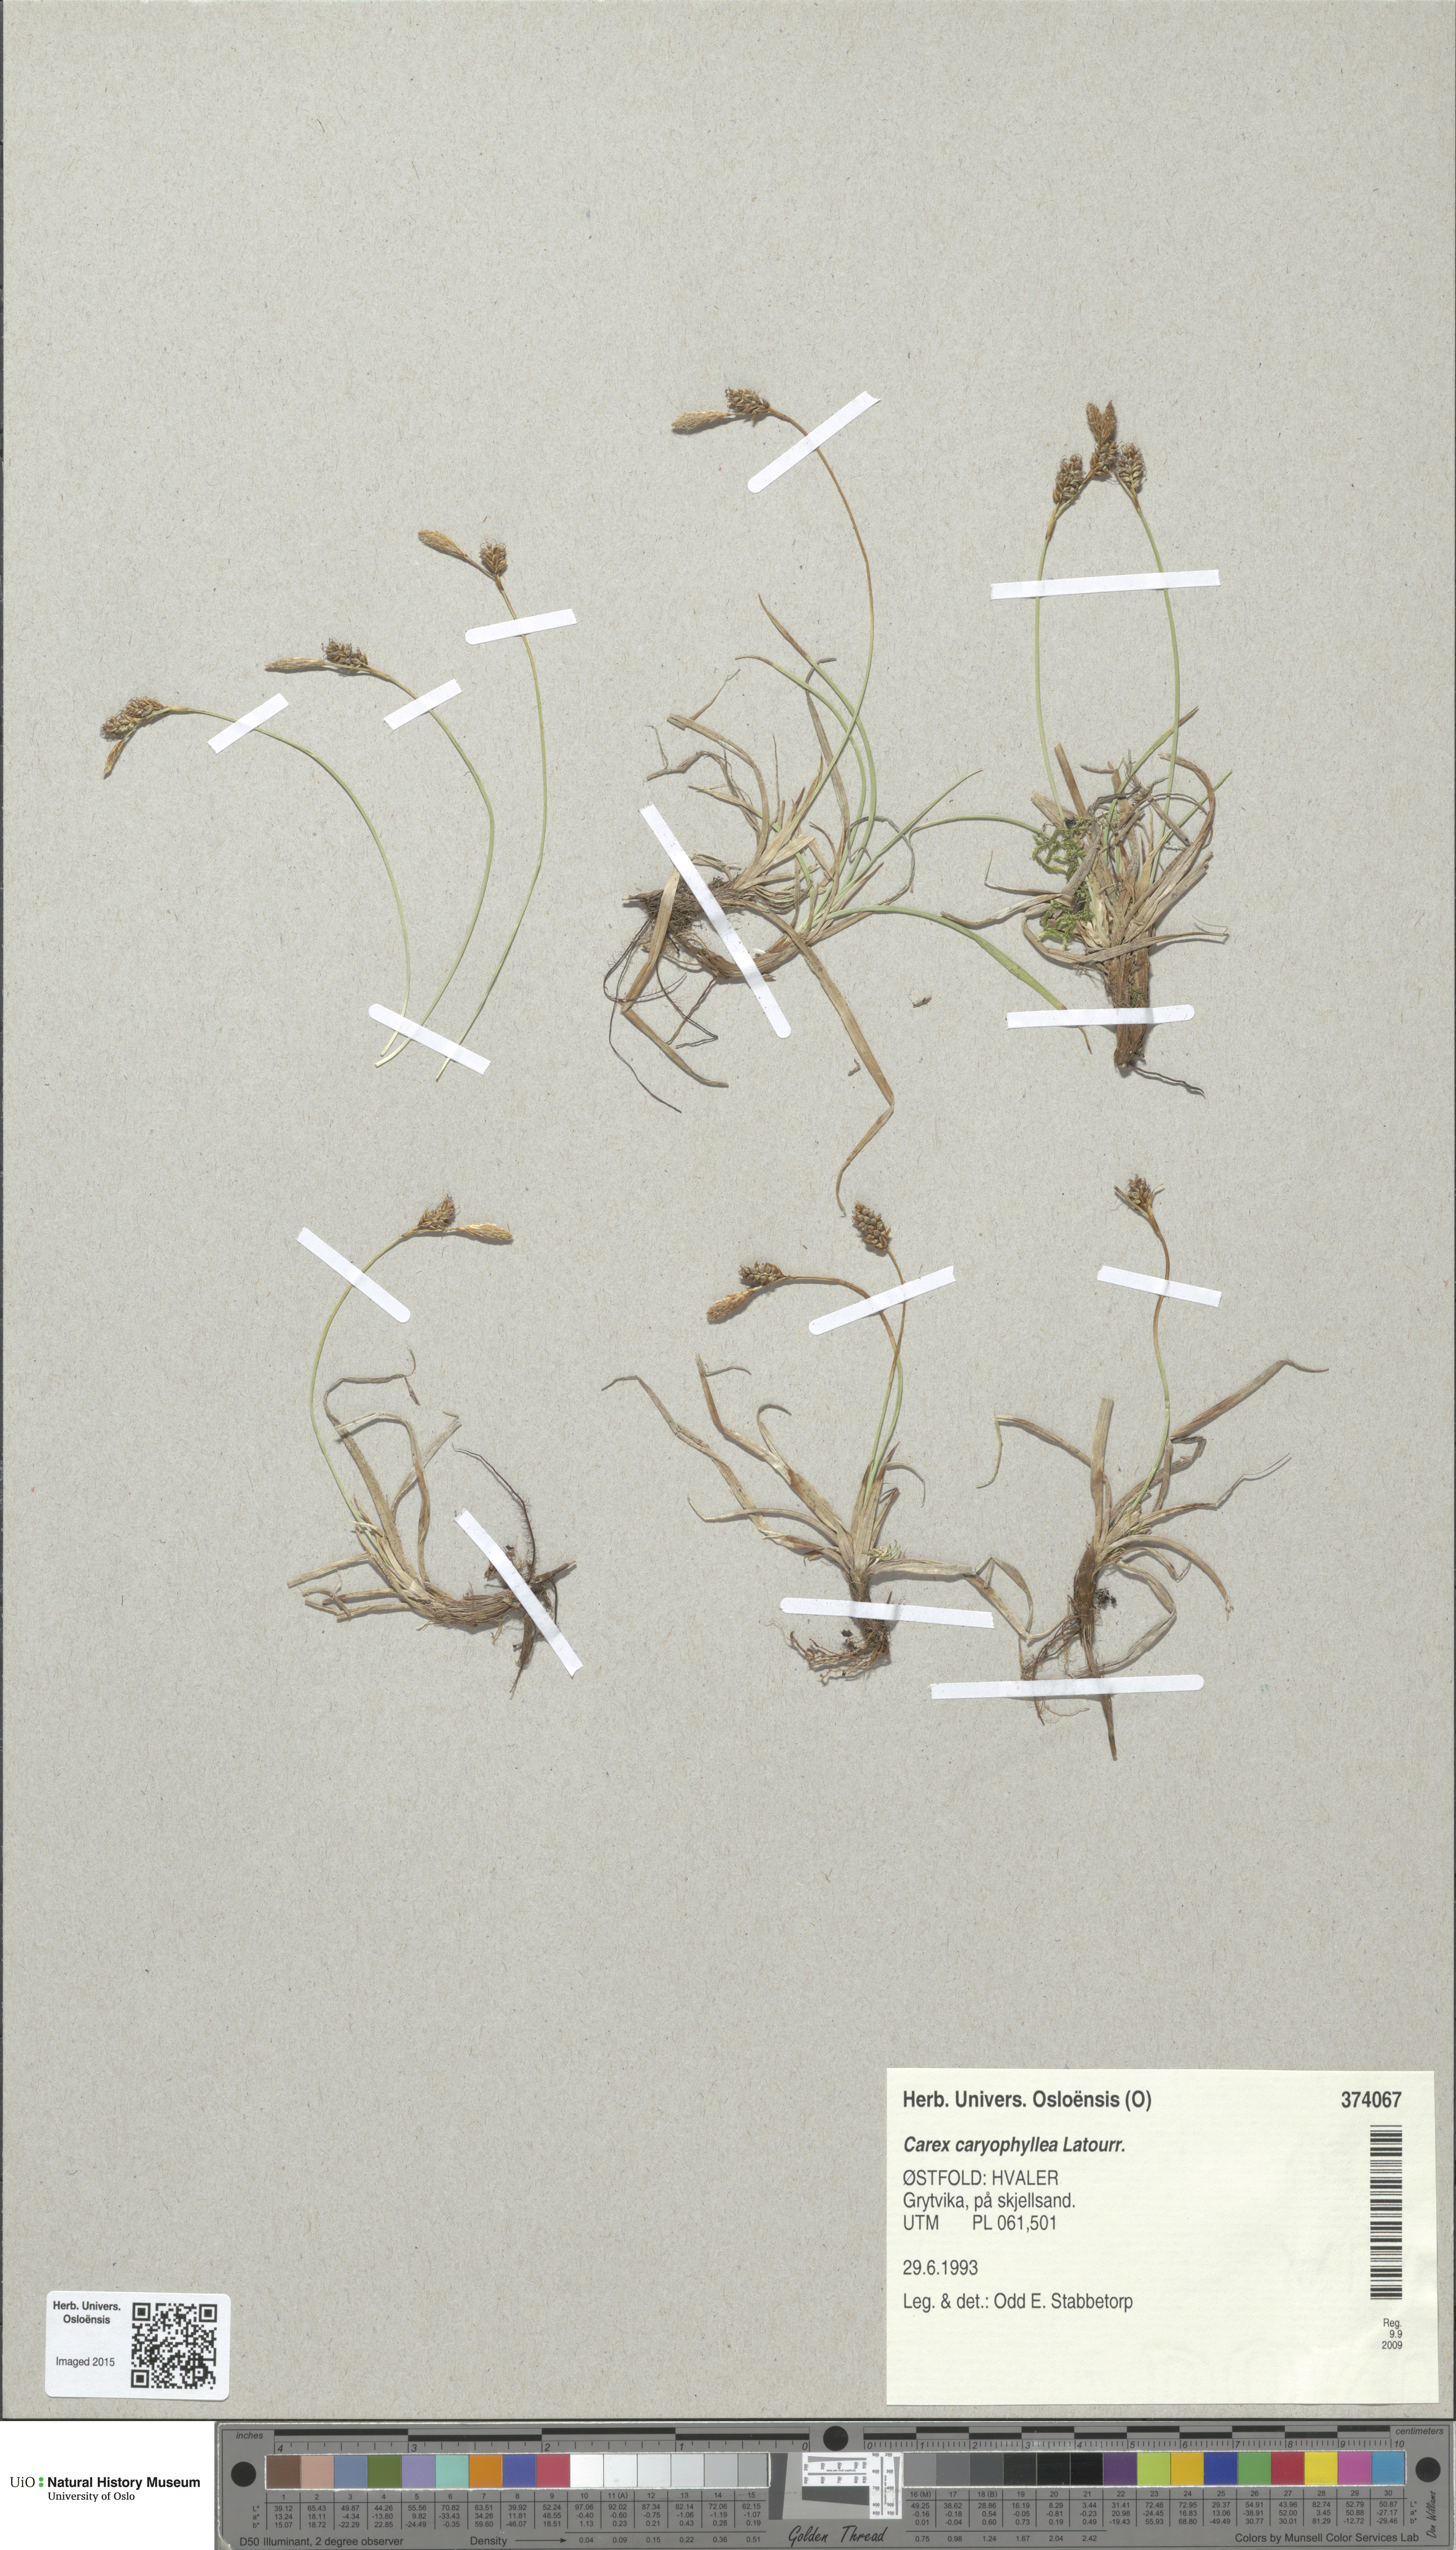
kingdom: Plantae
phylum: Tracheophyta
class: Liliopsida
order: Poales
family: Cyperaceae
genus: Carex
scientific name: Carex caryophyllea
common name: Spring sedge
